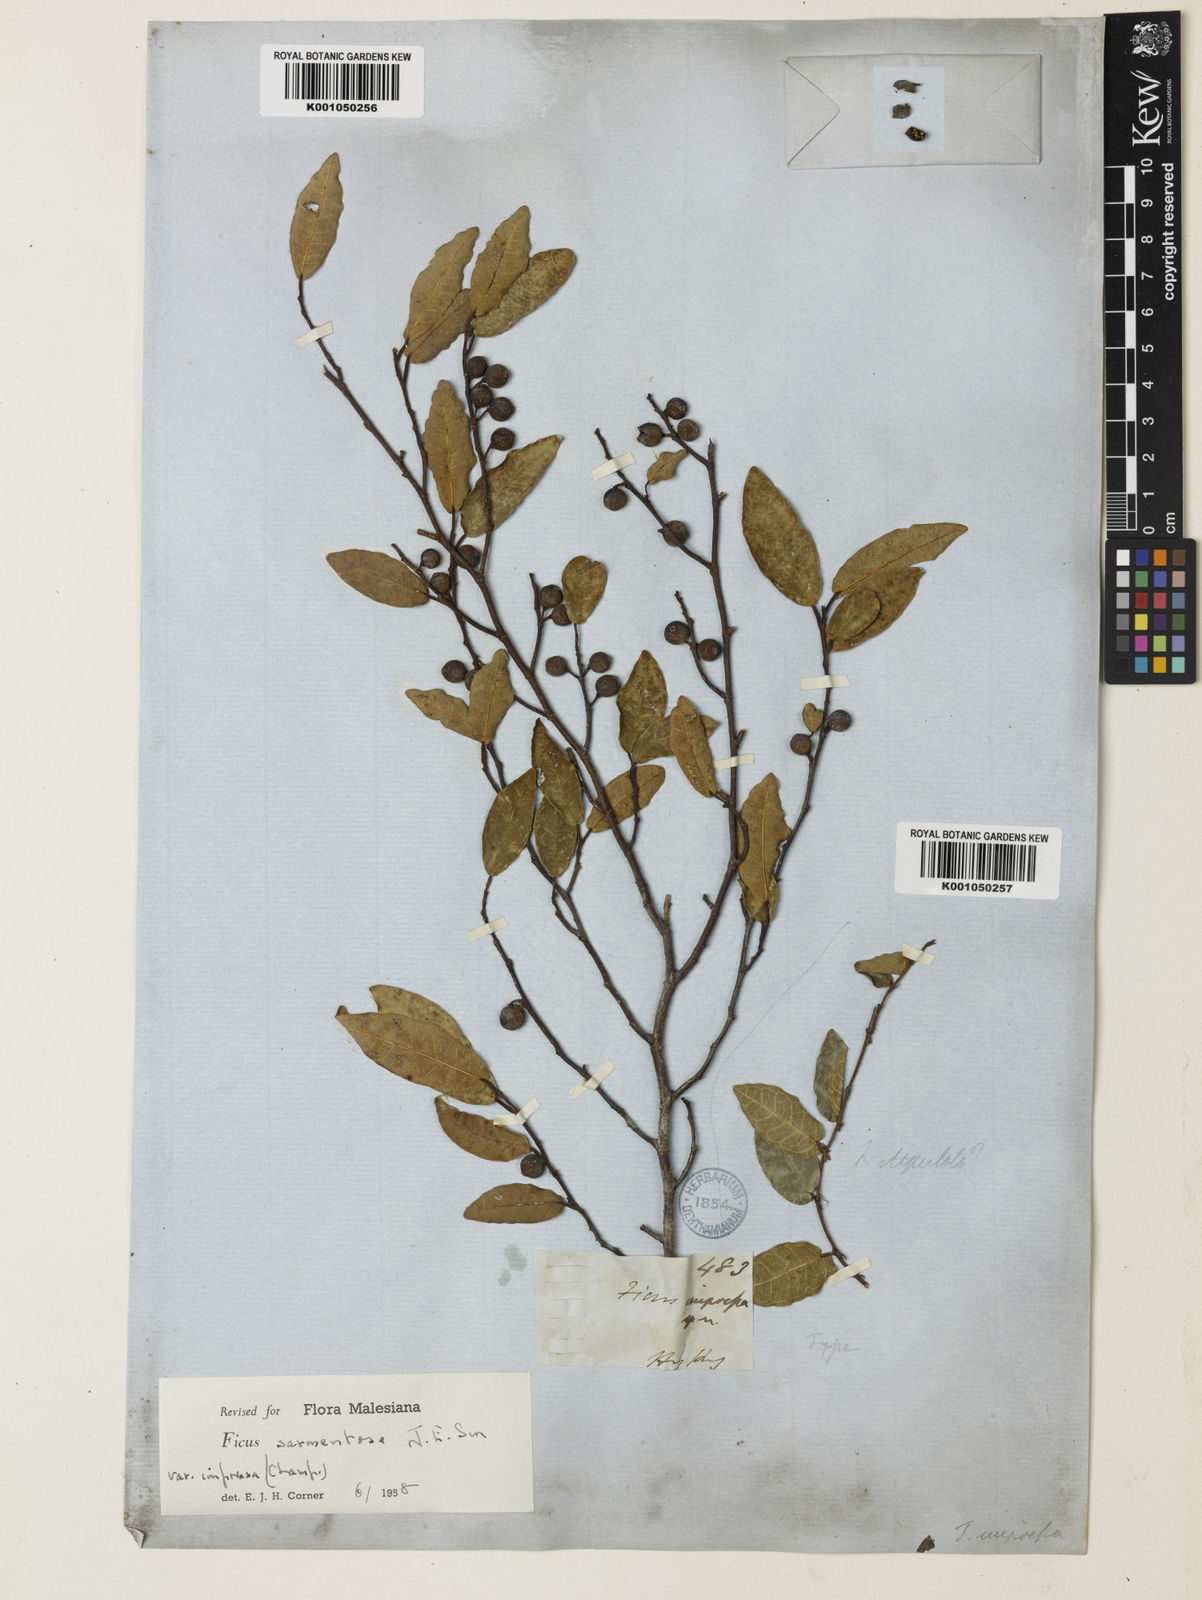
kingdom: Plantae
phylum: Tracheophyta
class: Magnoliopsida
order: Rosales
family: Moraceae
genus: Ficus
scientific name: Ficus sarmentosa
